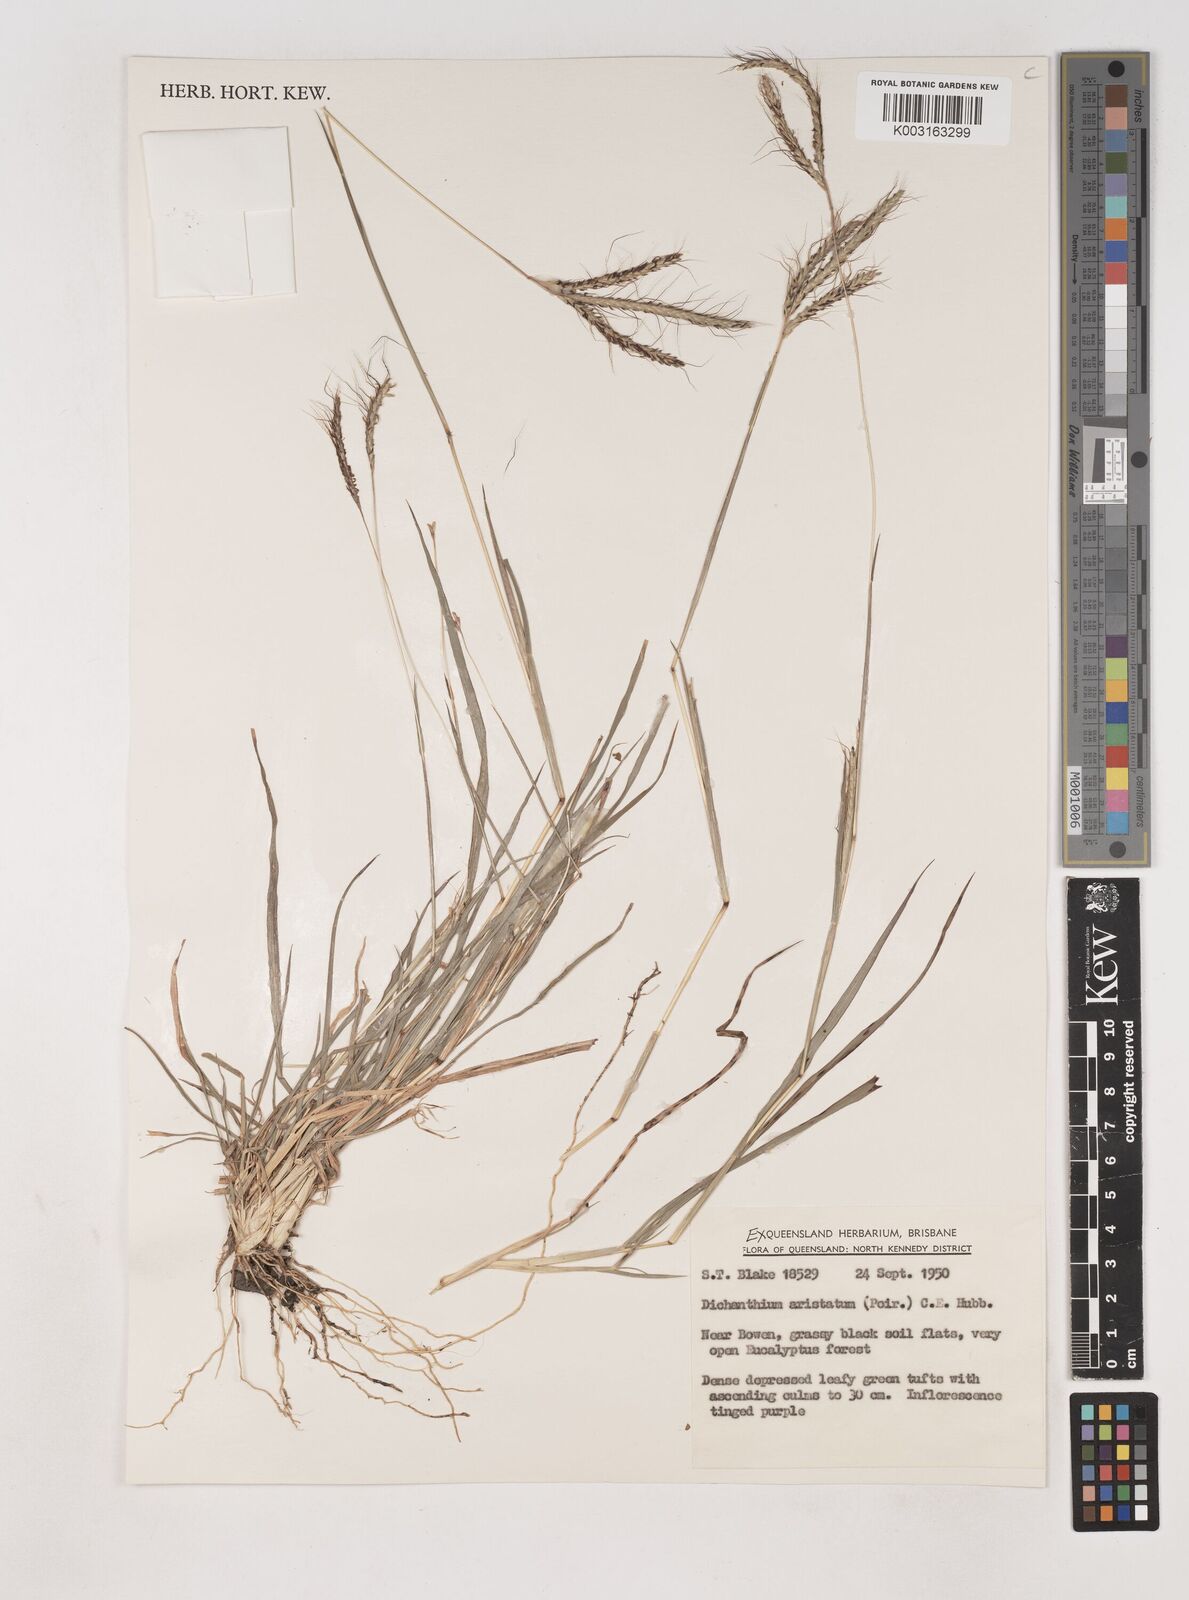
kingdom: Plantae
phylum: Tracheophyta
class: Liliopsida
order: Poales
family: Poaceae
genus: Dichanthium
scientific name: Dichanthium aristatum
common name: Angleton bluestem
